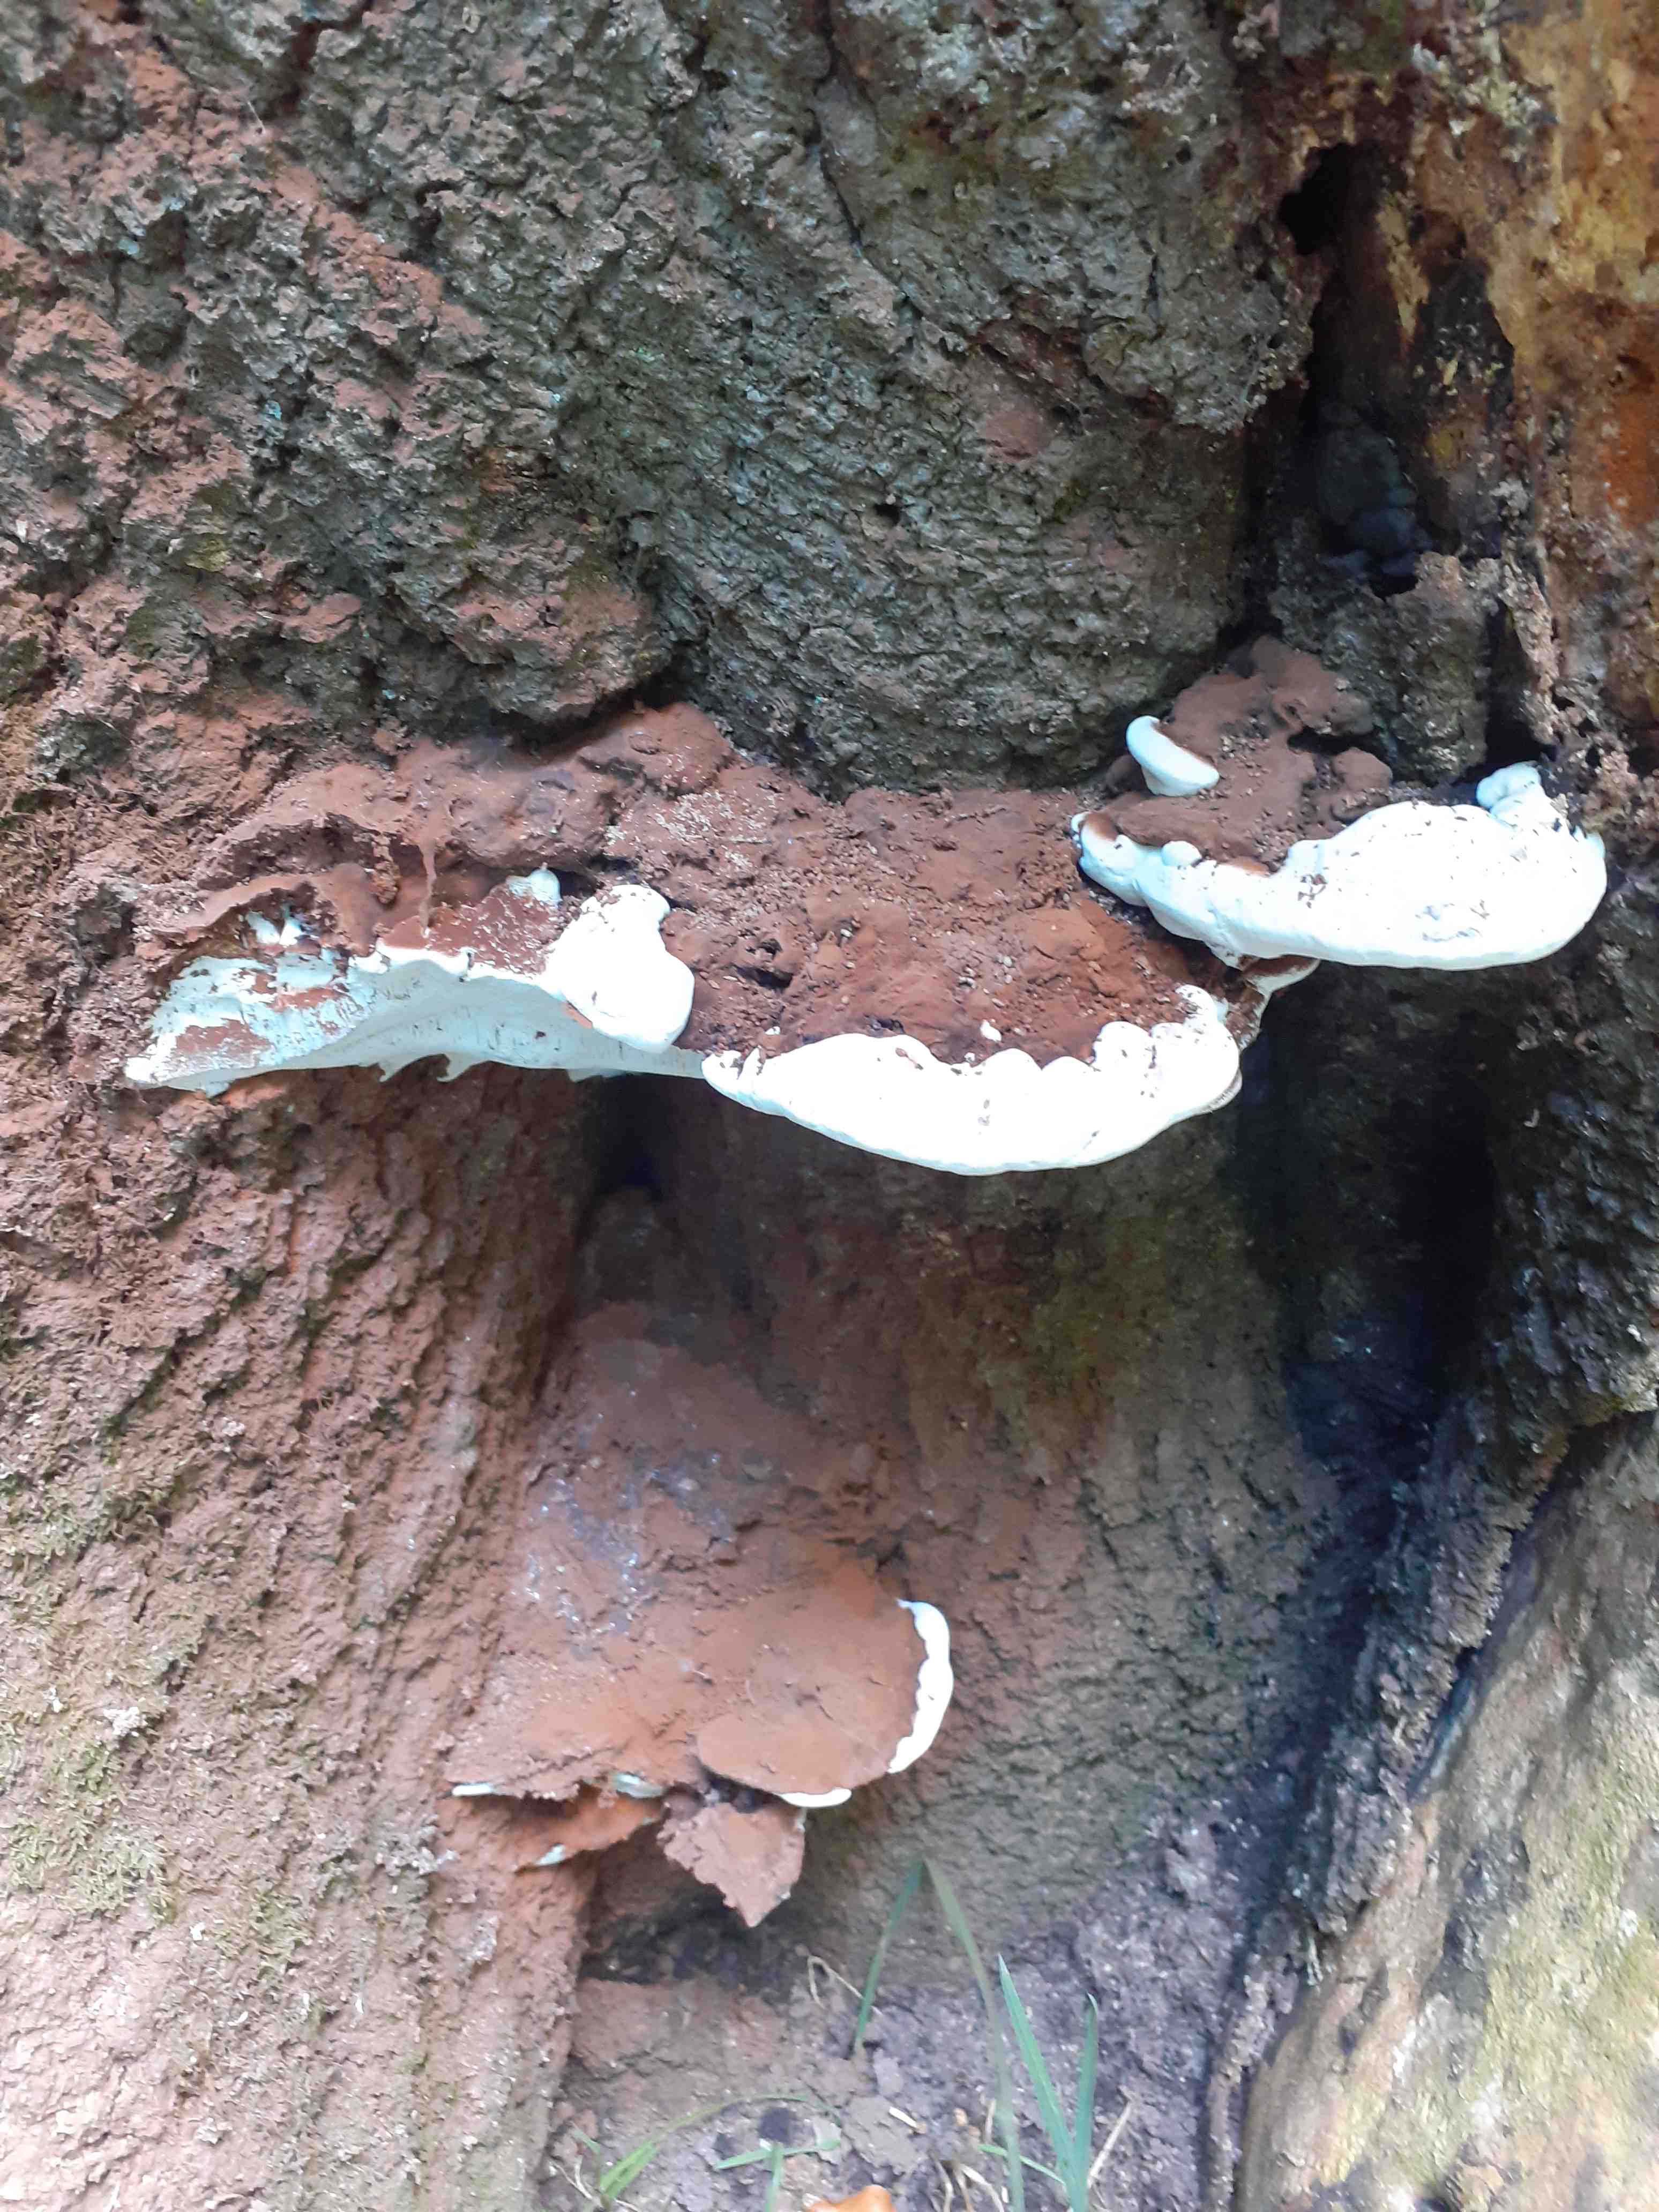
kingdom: Fungi
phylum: Basidiomycota
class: Agaricomycetes
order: Polyporales
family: Polyporaceae
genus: Ganoderma
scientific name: Ganoderma applanatum
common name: flad lakporesvamp
